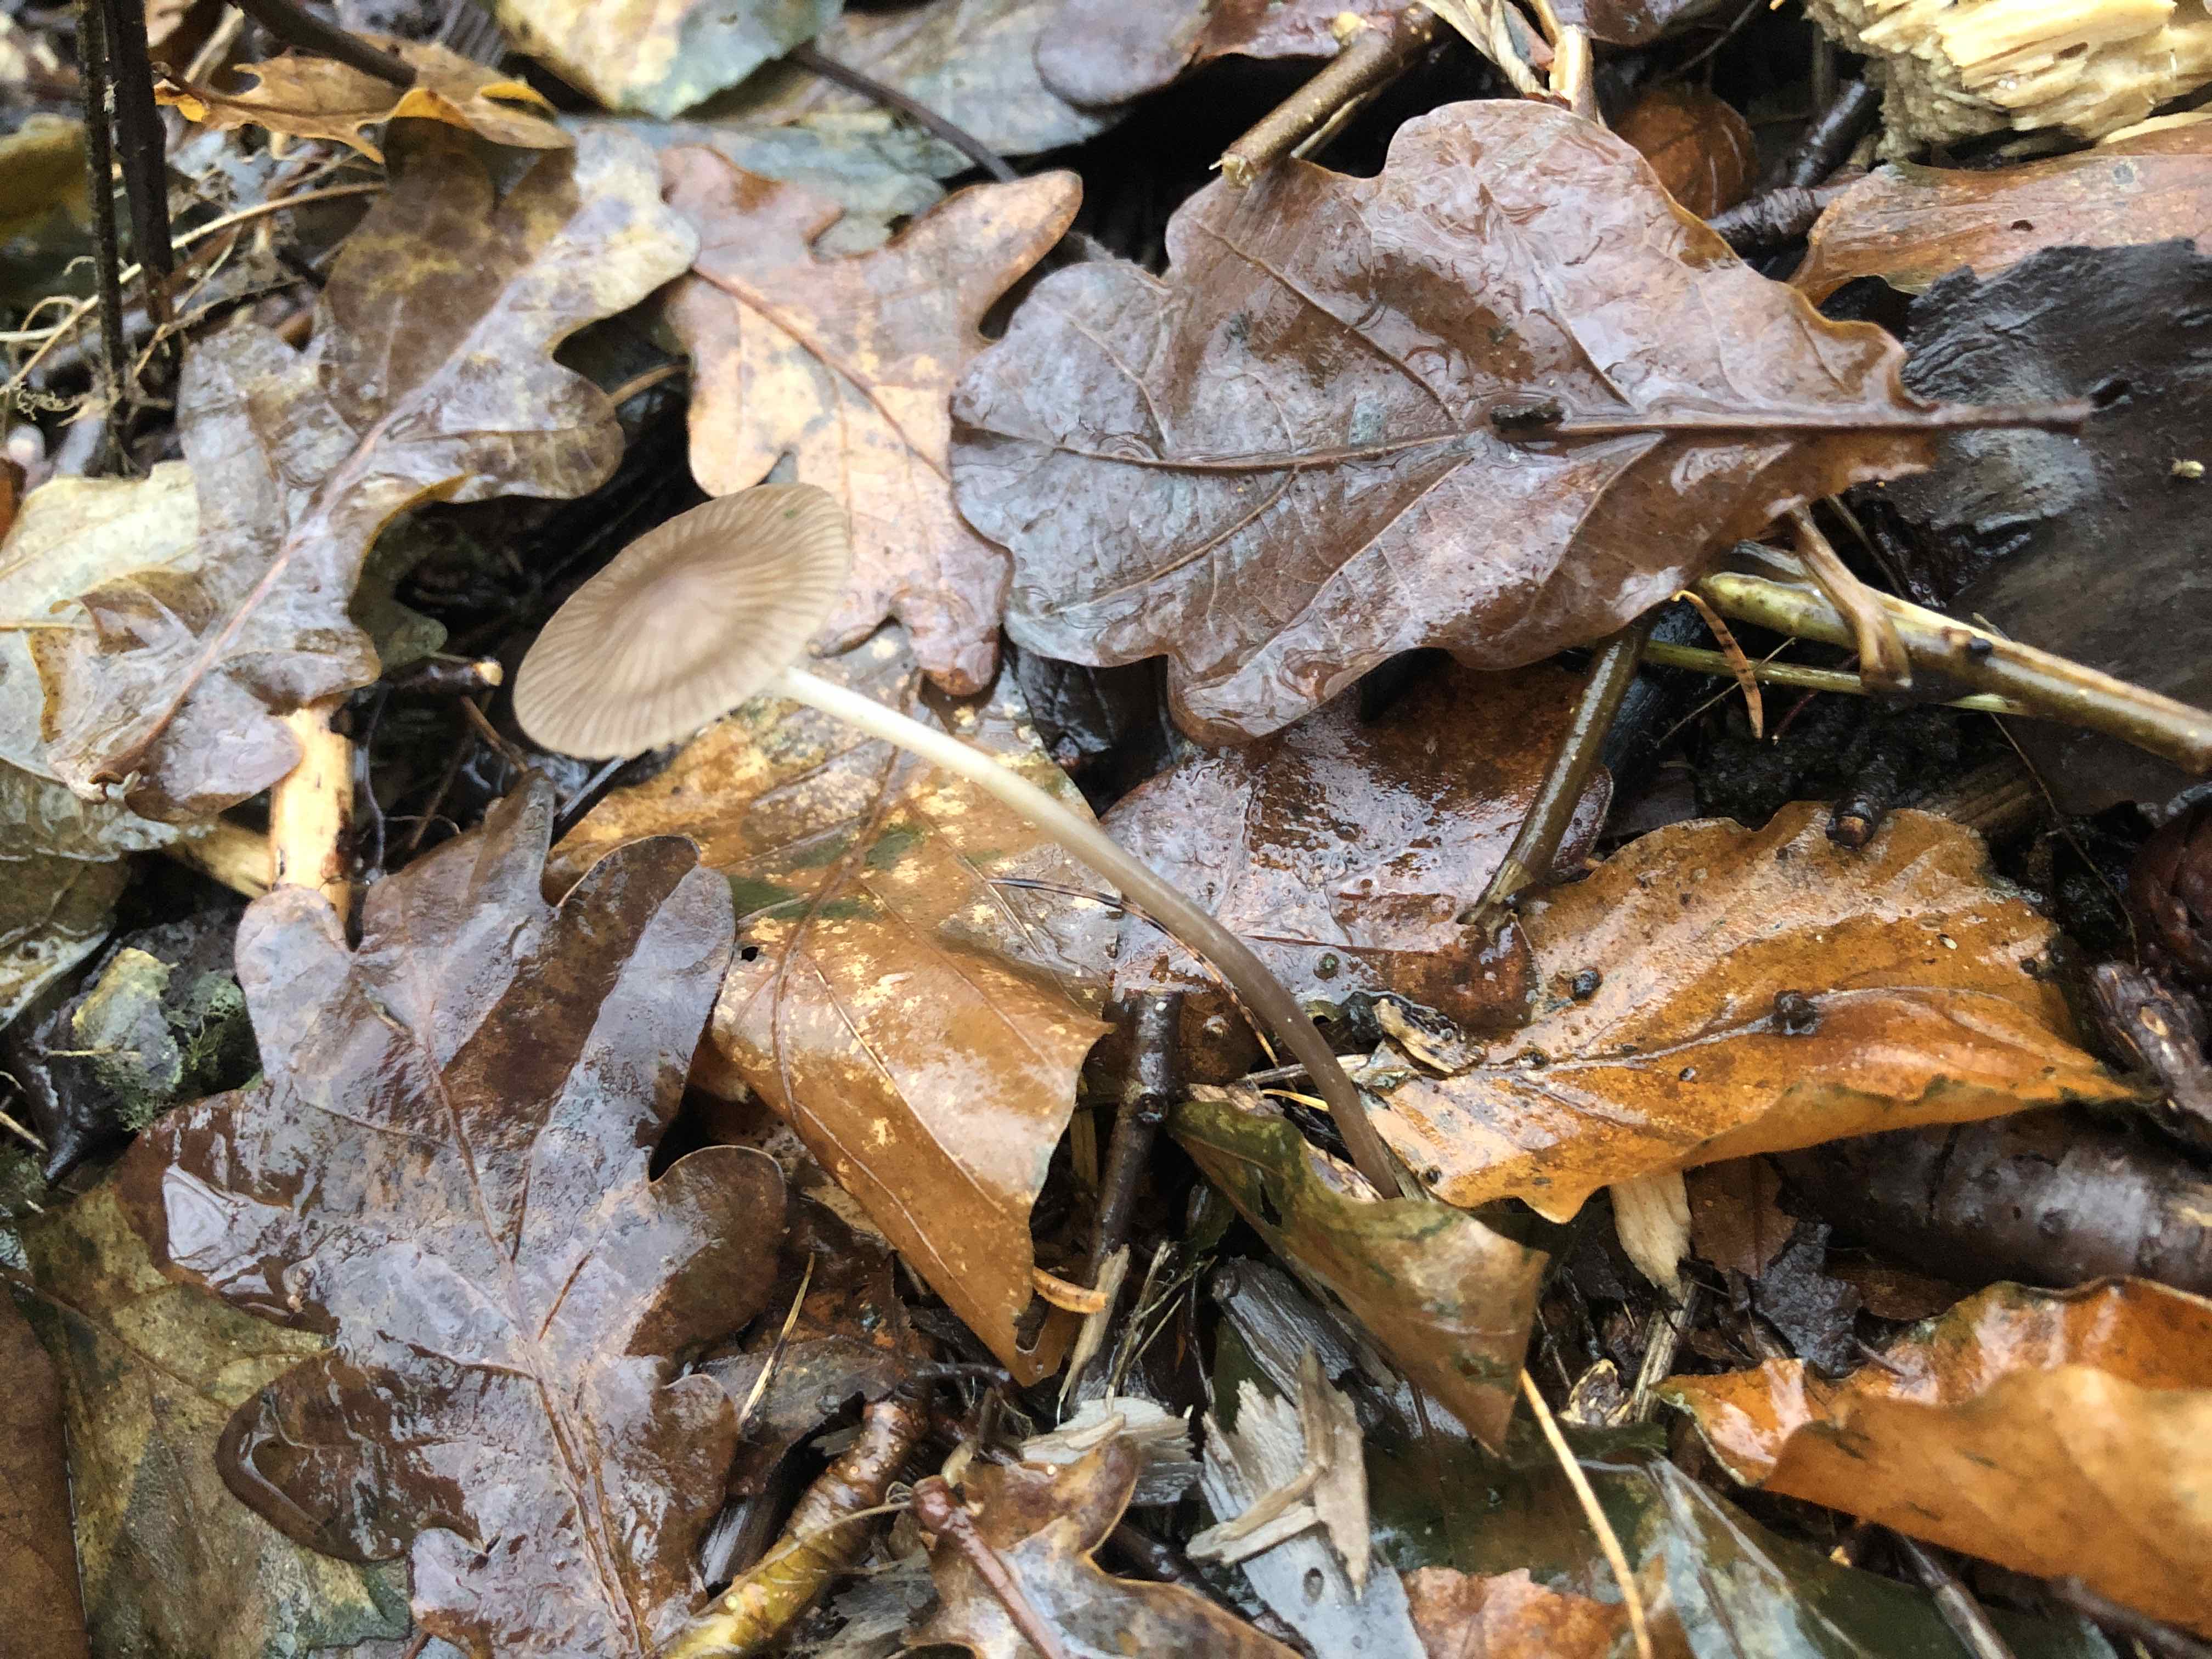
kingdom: Fungi
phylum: Basidiomycota
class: Agaricomycetes
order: Agaricales
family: Mycenaceae
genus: Mycena
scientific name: Mycena vitilis
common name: blankstokket huesvamp
